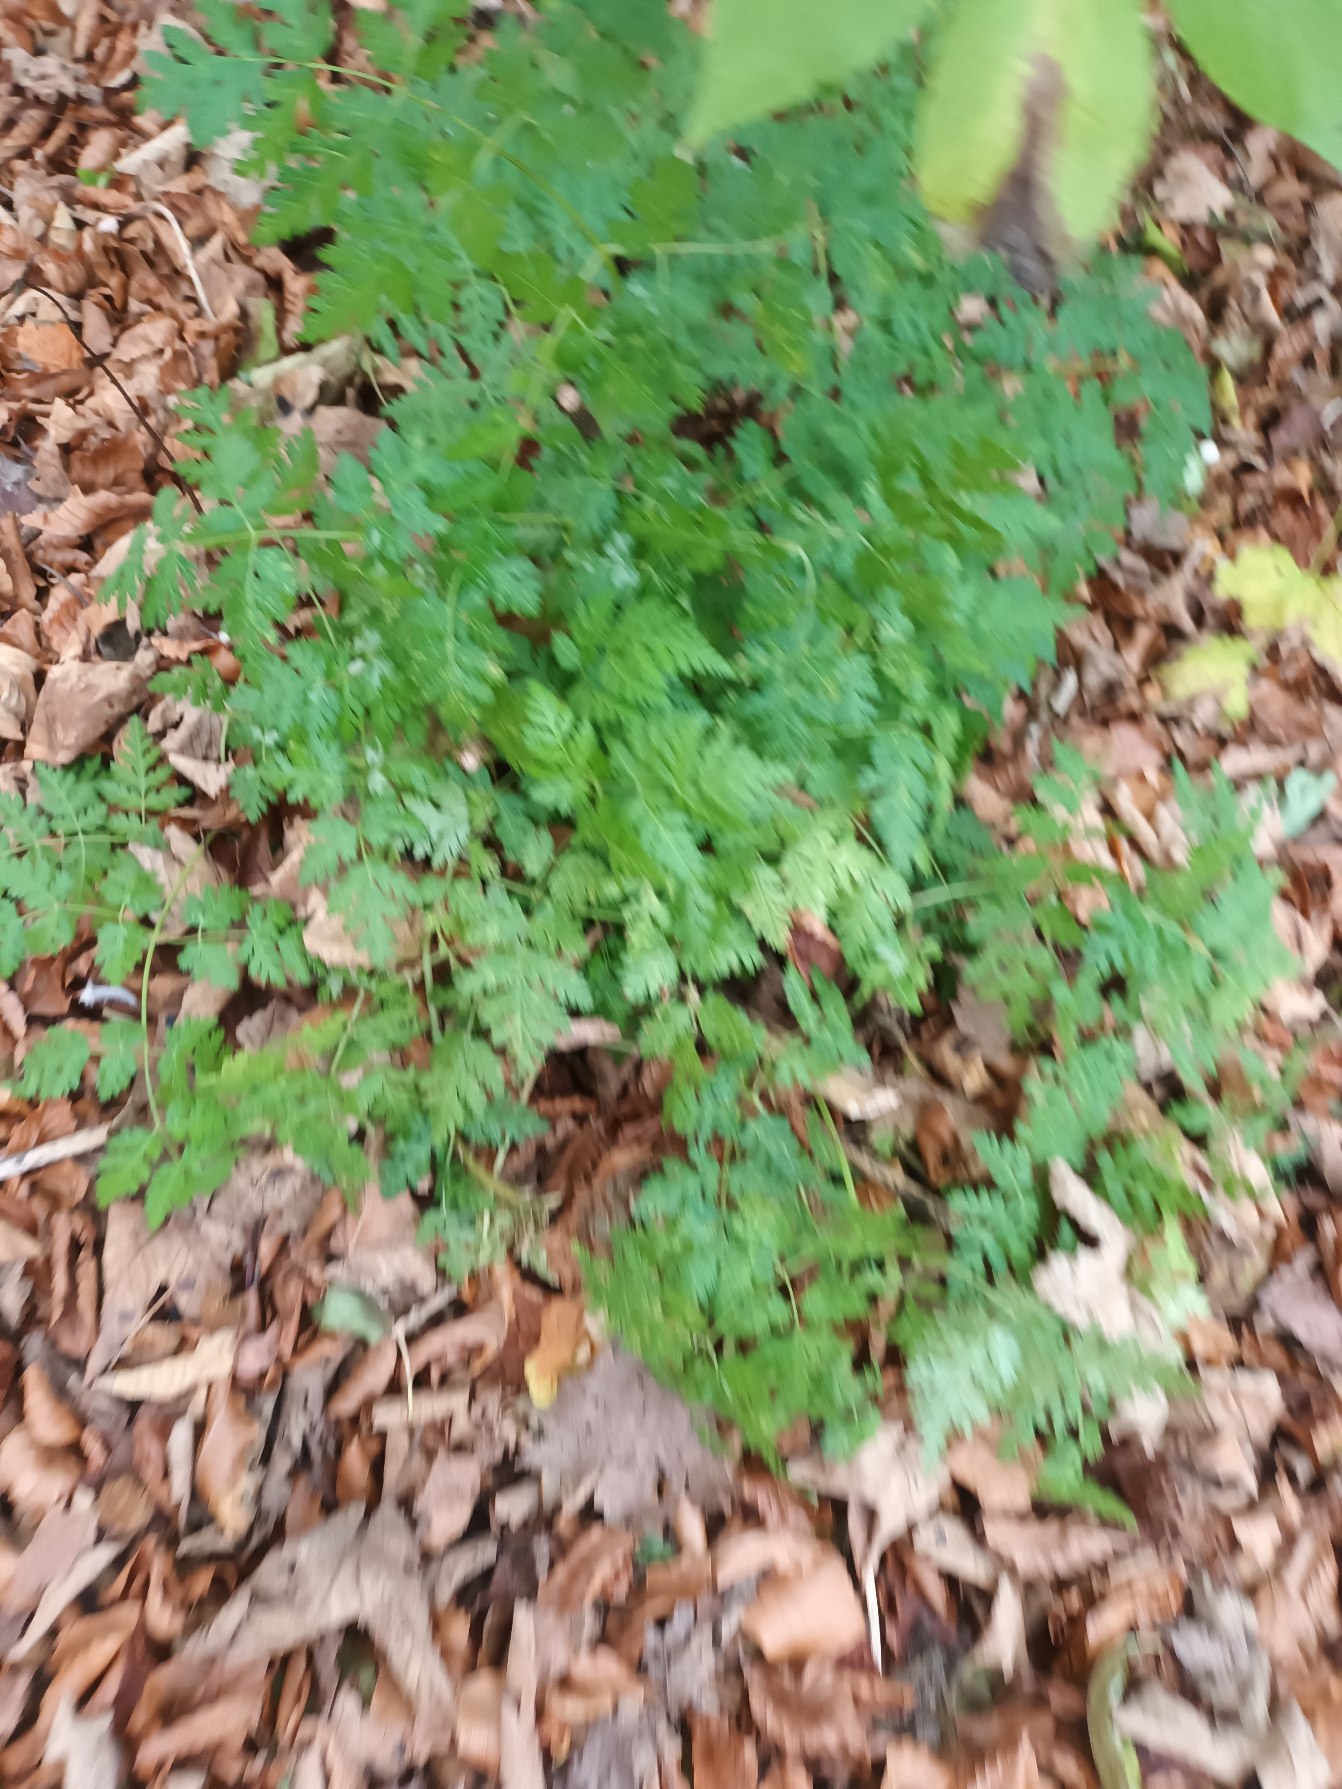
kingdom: Plantae
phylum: Tracheophyta
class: Magnoliopsida
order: Apiales
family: Apiaceae
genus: Myrrhis
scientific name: Myrrhis odorata
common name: Sødskærm
